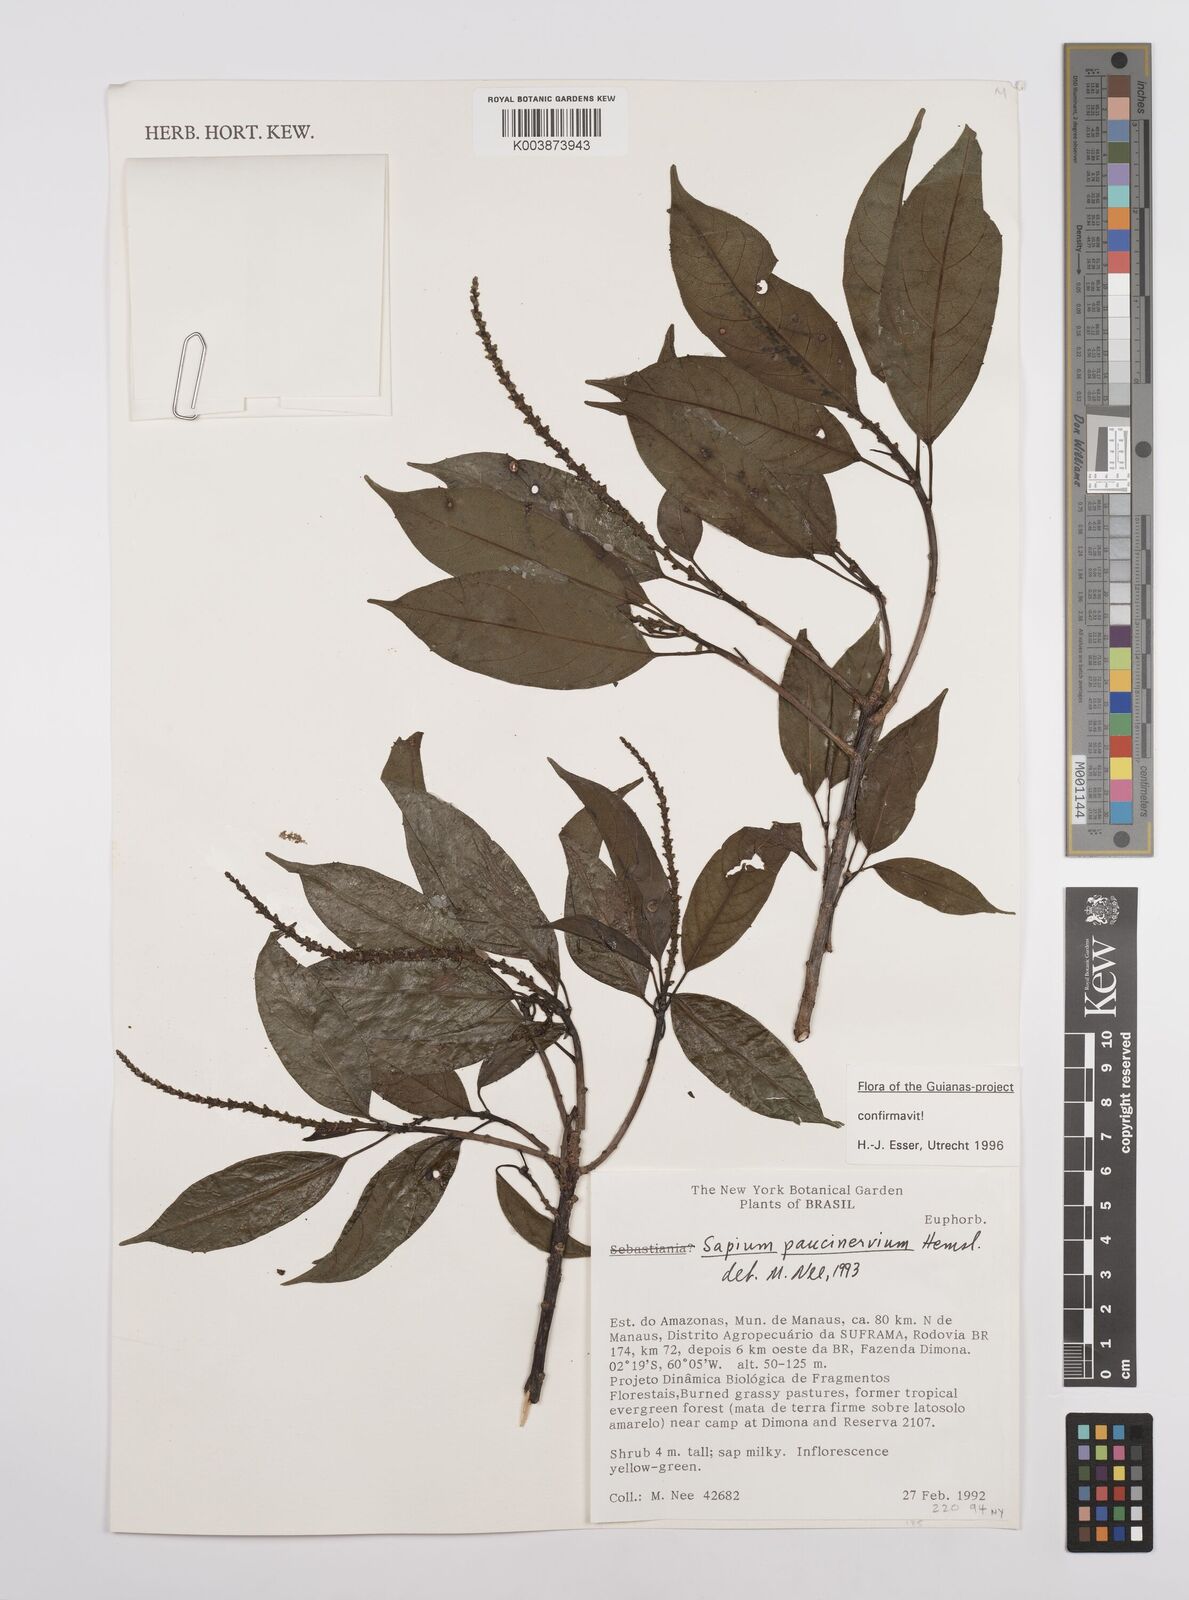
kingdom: Plantae
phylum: Tracheophyta
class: Magnoliopsida
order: Malpighiales
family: Euphorbiaceae
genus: Sapium
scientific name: Sapium paucinervium
